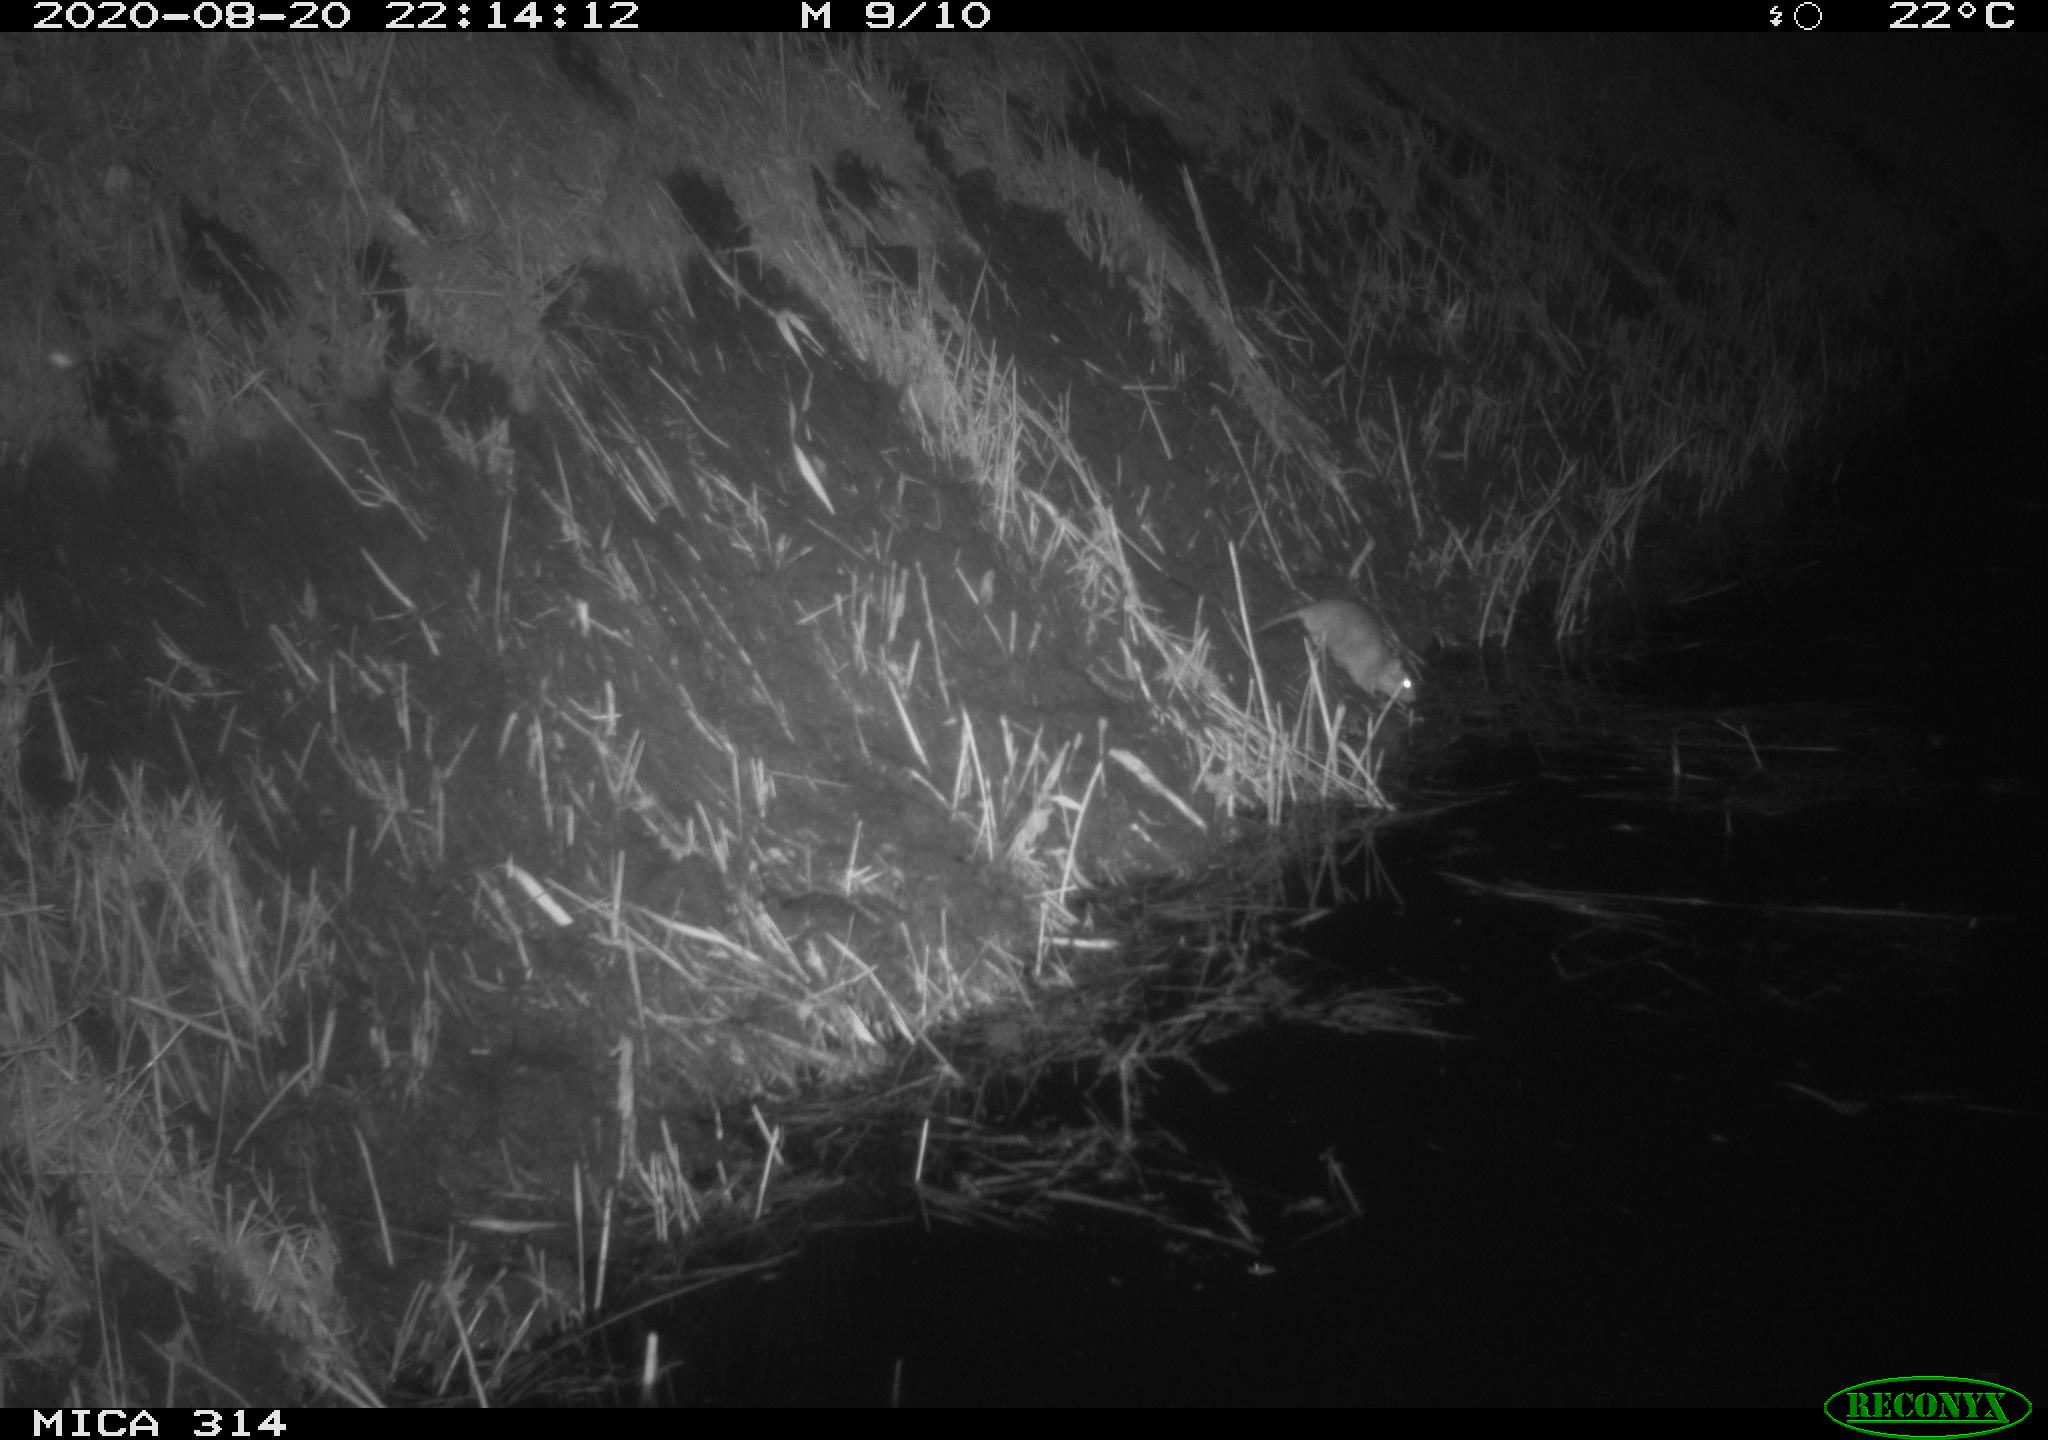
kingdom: Animalia
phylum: Chordata
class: Mammalia
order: Rodentia
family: Muridae
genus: Rattus
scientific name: Rattus norvegicus
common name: Brown rat
